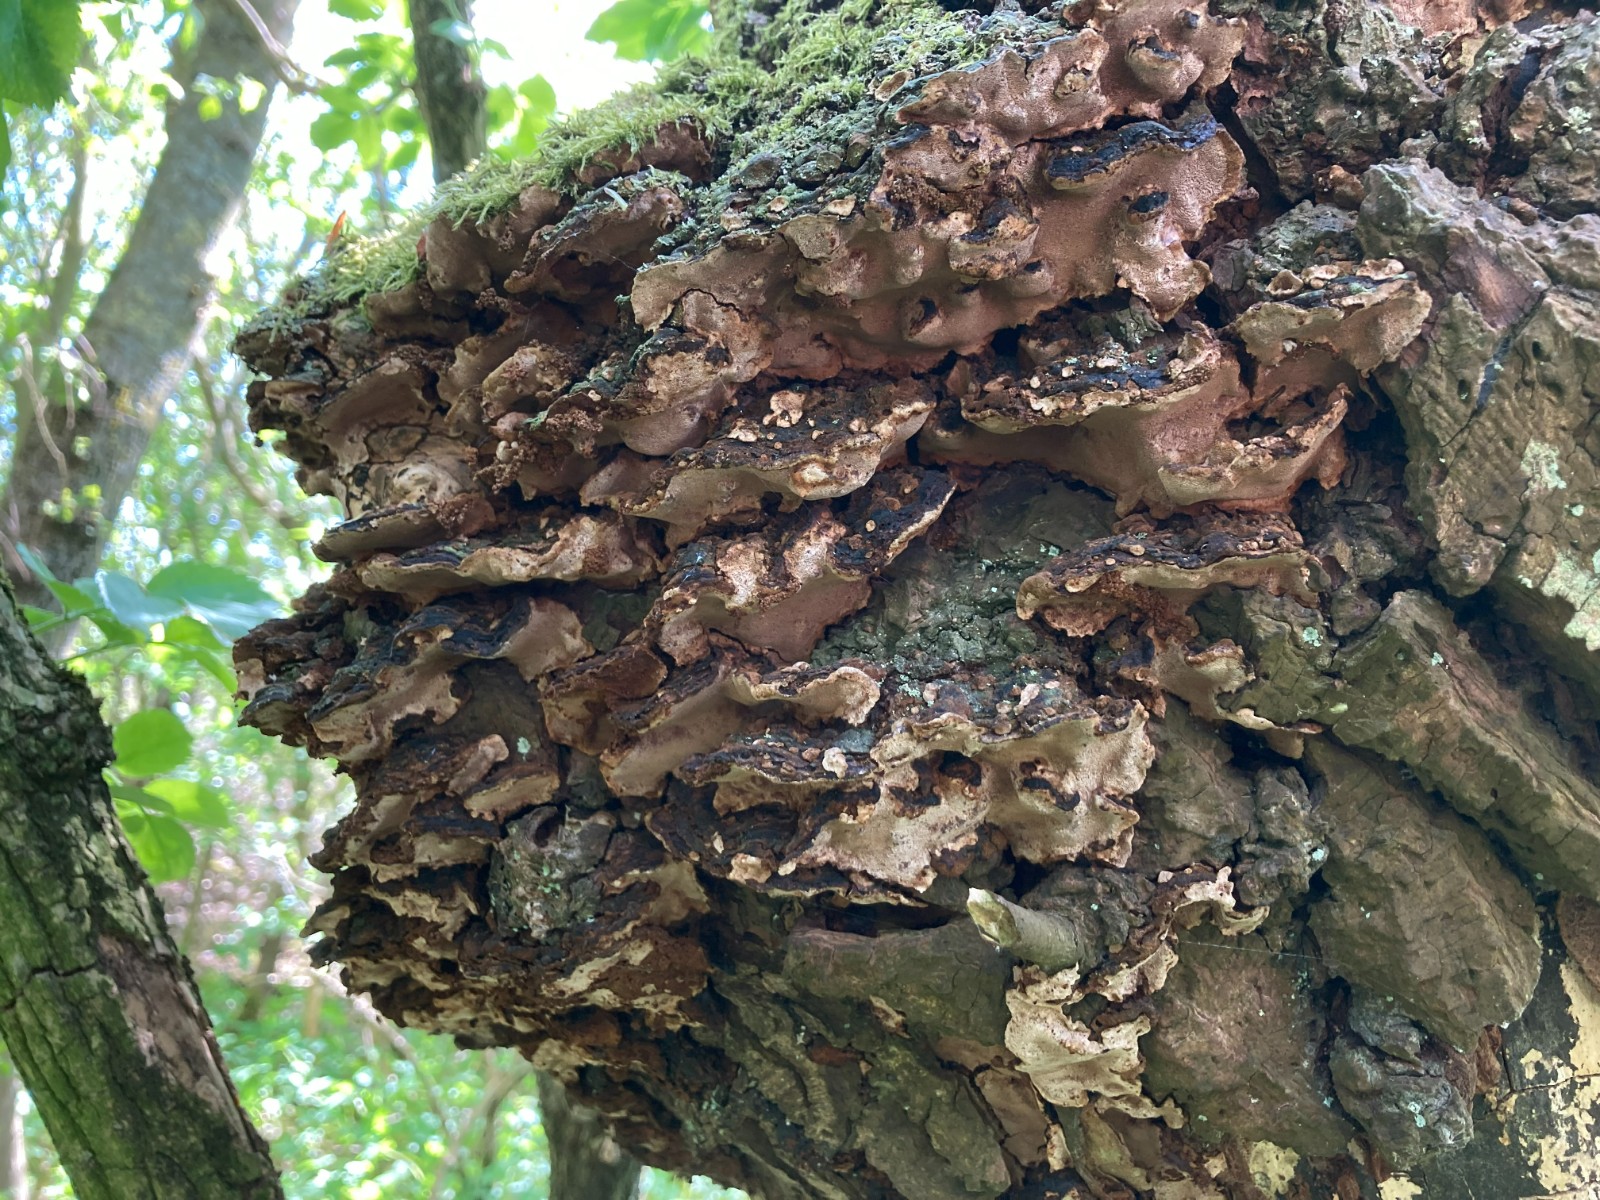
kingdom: Fungi
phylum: Basidiomycota
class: Agaricomycetes
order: Hymenochaetales
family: Hymenochaetaceae
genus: Phellinopsis
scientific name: Phellinopsis conchata
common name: pile-ildporesvamp
